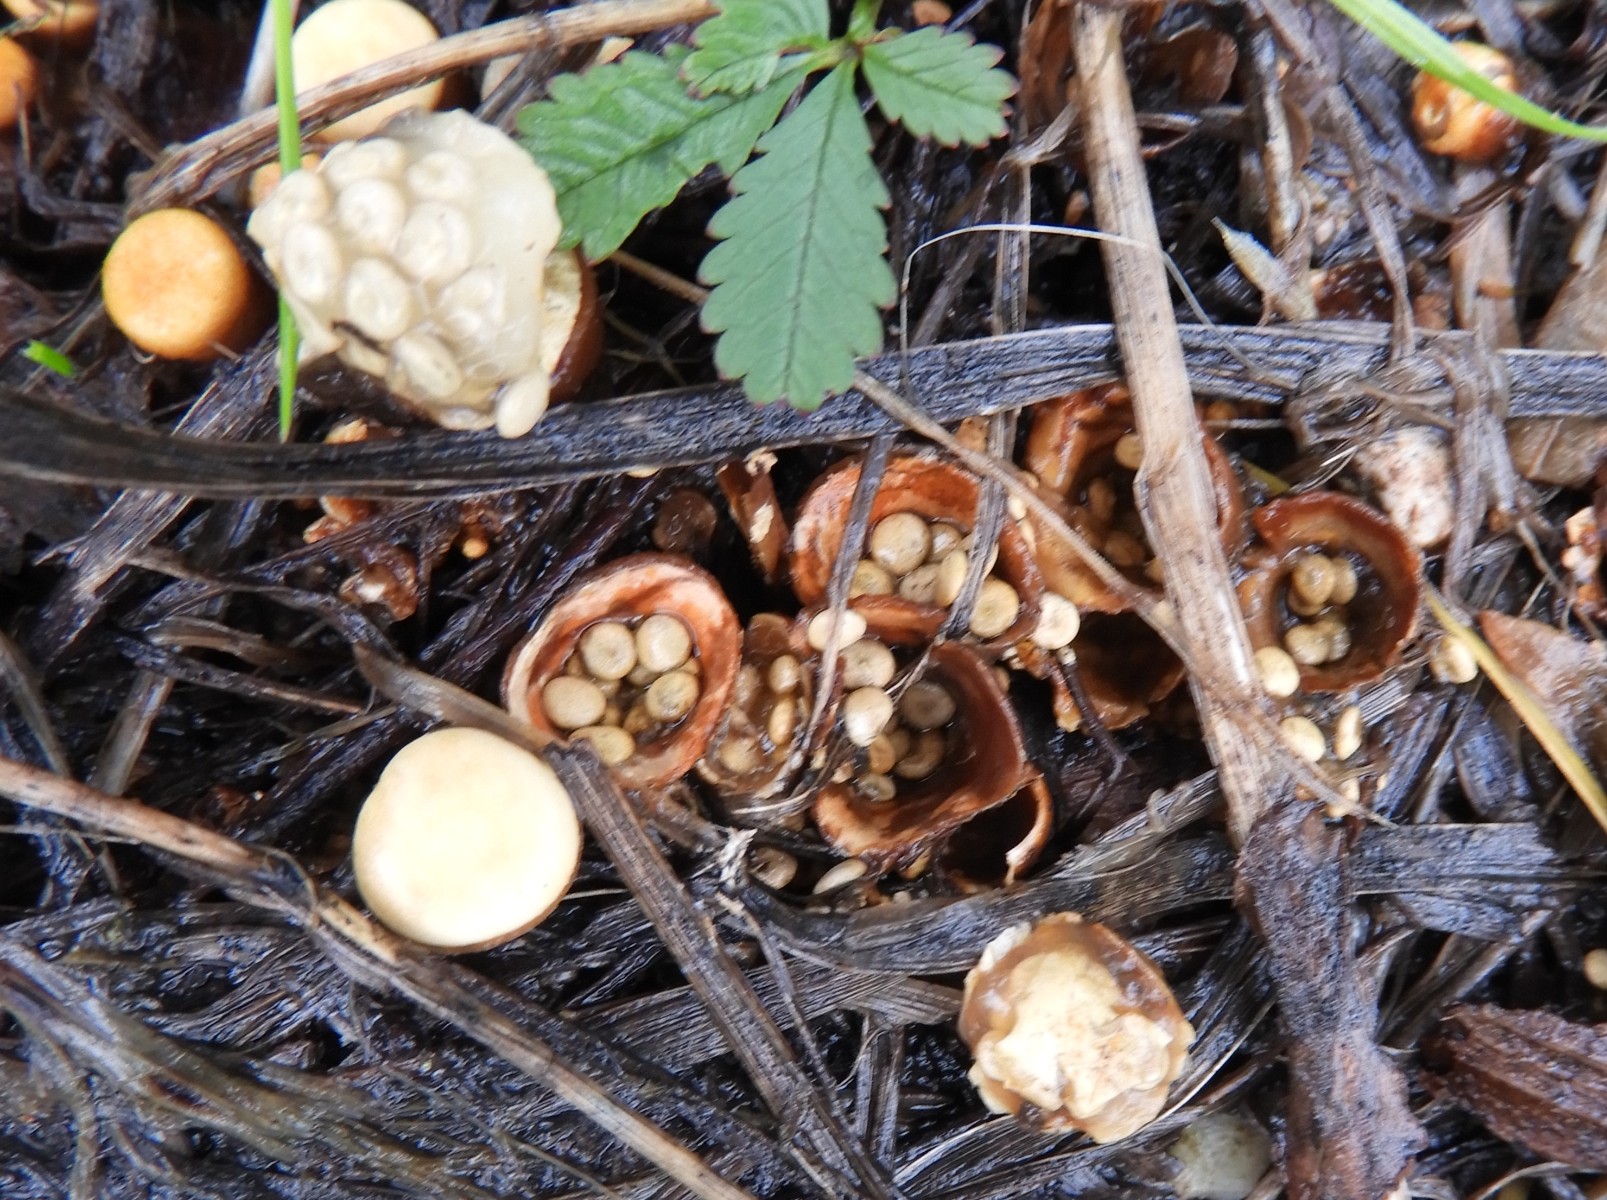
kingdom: Fungi
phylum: Basidiomycota
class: Agaricomycetes
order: Agaricales
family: Nidulariaceae
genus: Crucibulum
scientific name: Crucibulum crucibuliforme
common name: krukkesvamp
